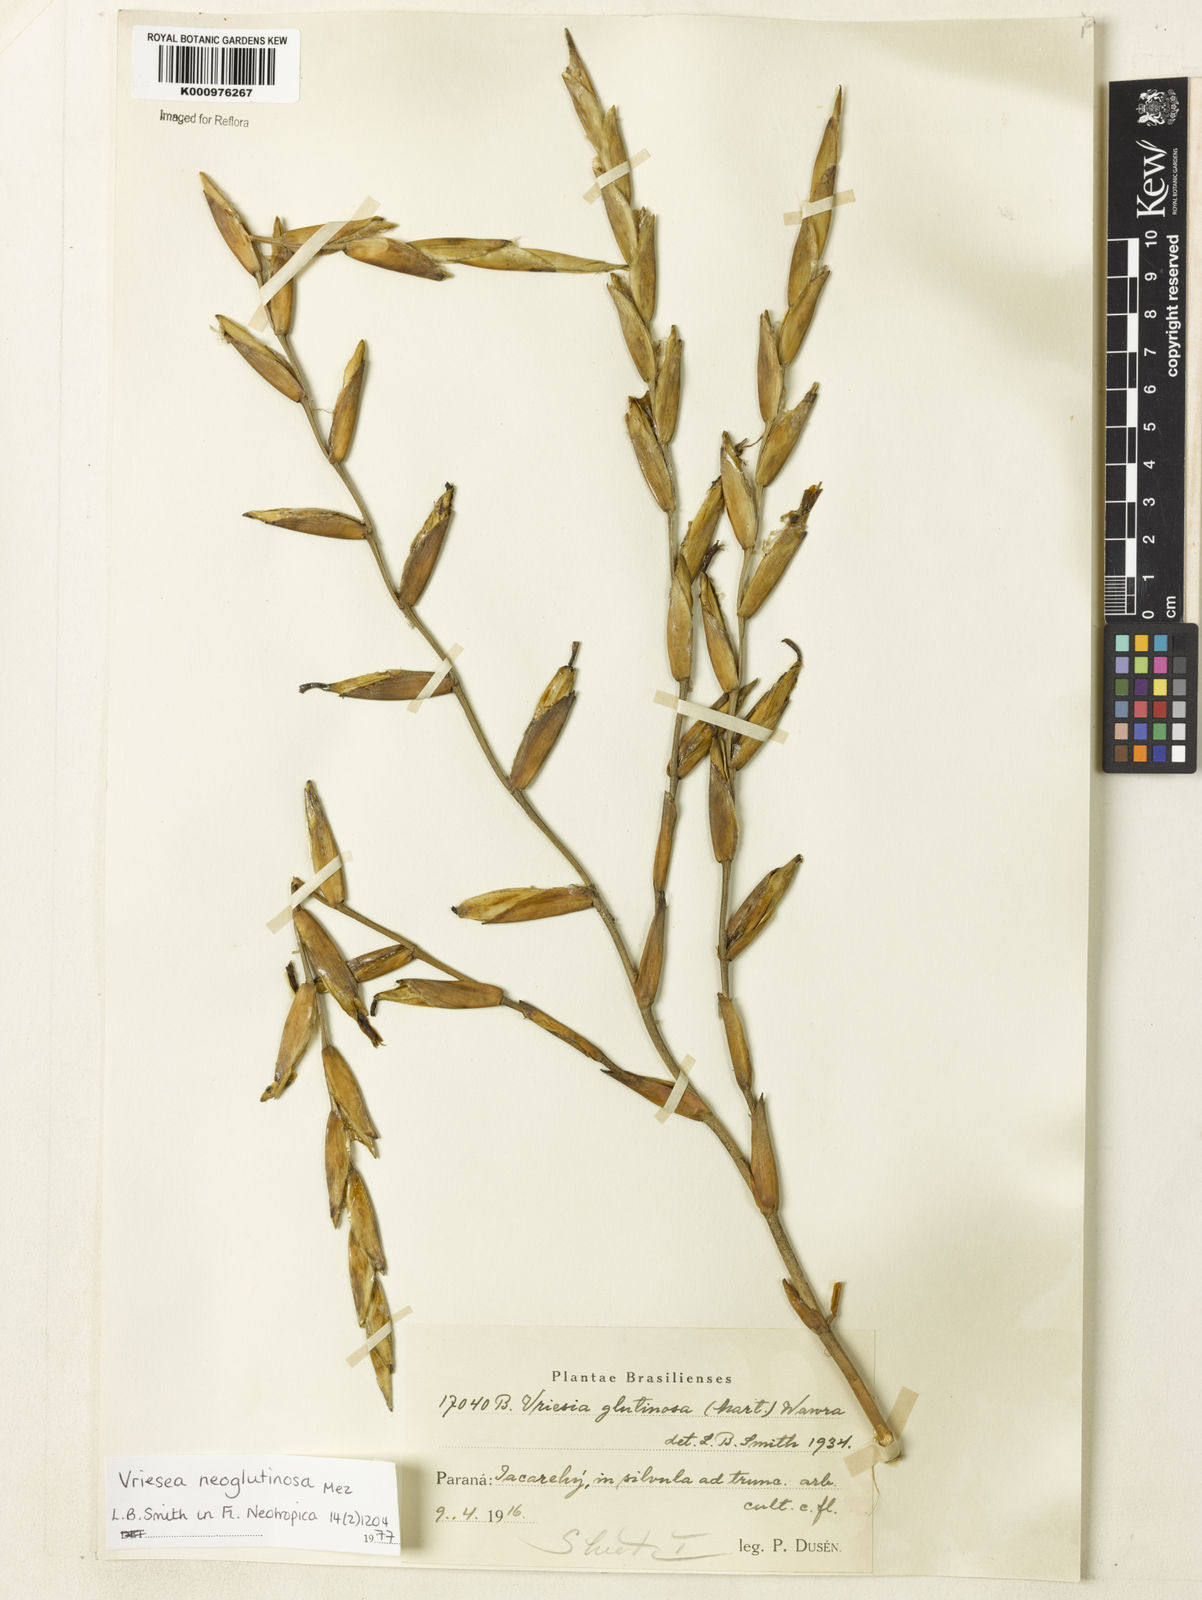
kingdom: Plantae
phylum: Tracheophyta
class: Liliopsida
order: Poales
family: Bromeliaceae
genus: Vriesea
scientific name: Vriesea neoglutinosa
